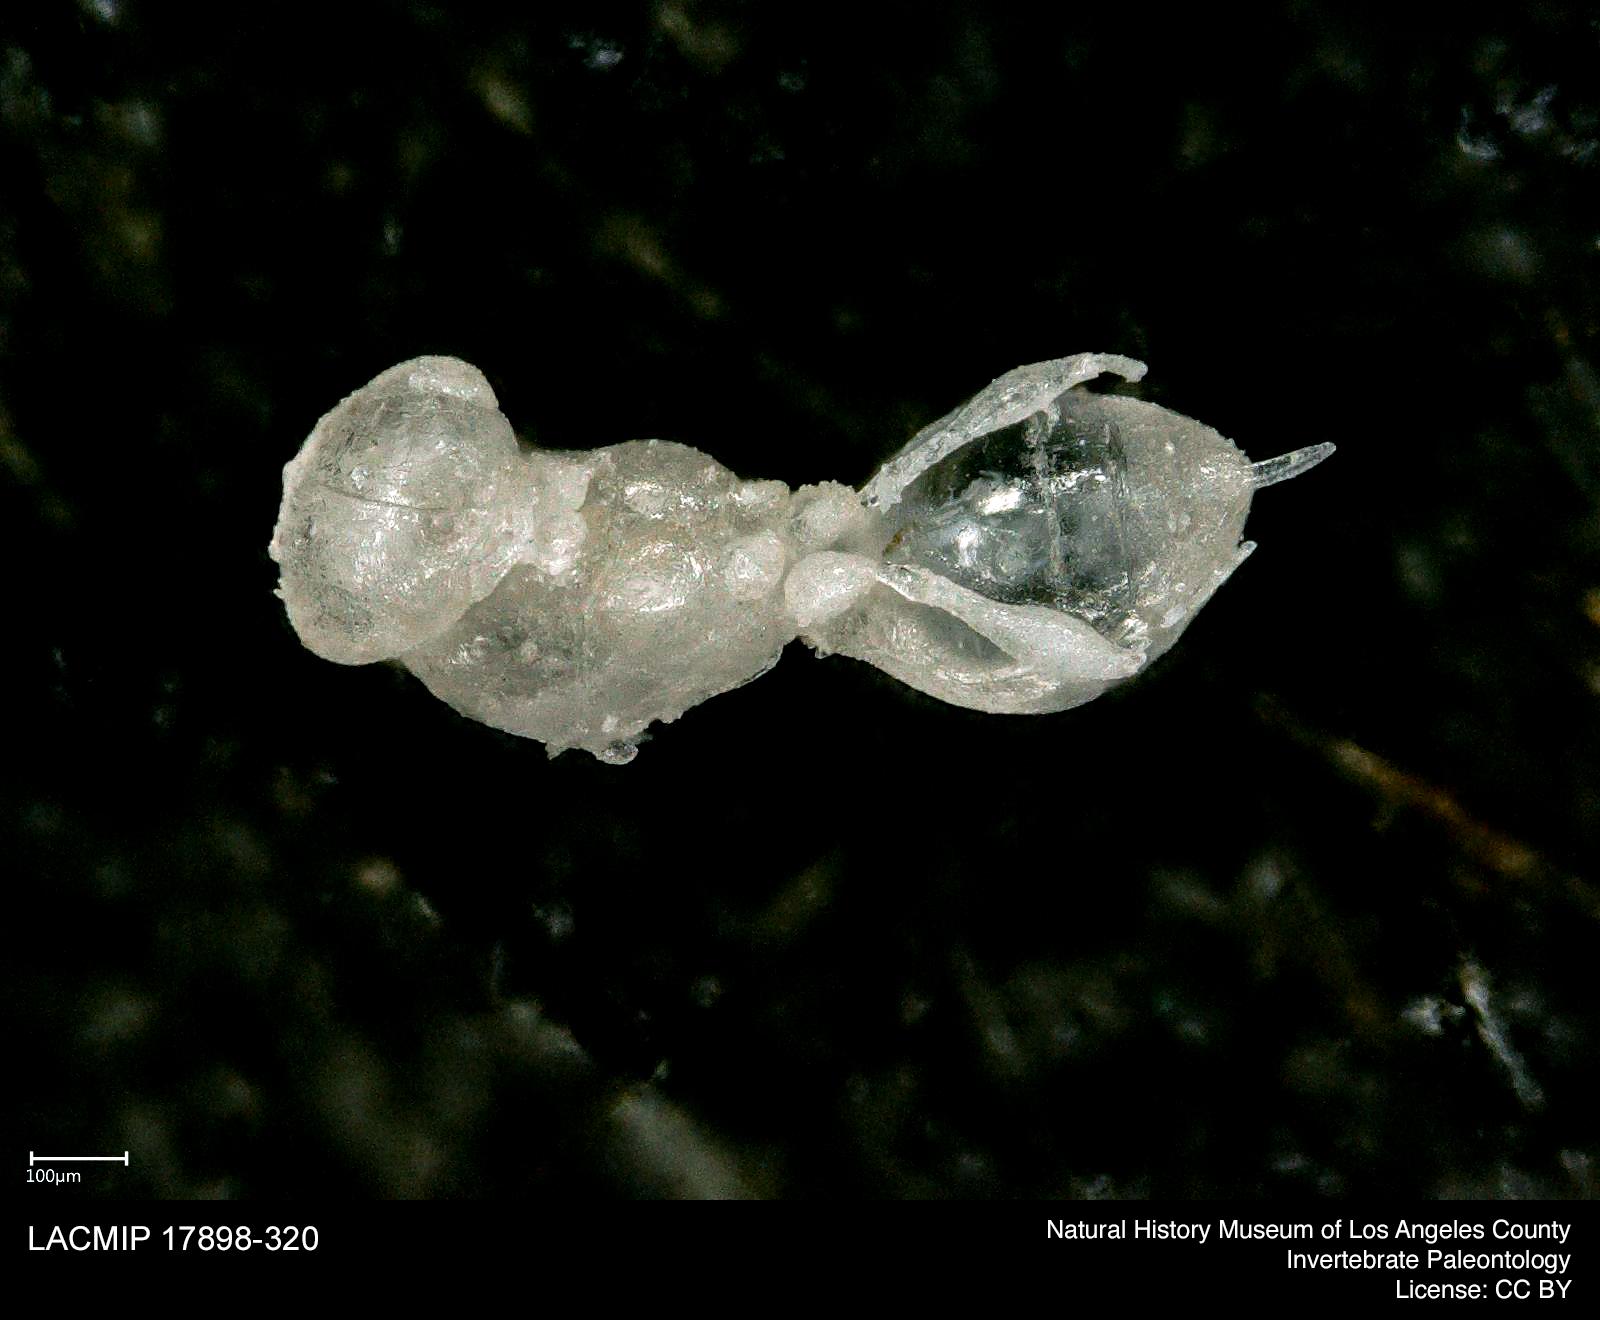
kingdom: Animalia
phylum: Arthropoda
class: Insecta
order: Hymenoptera
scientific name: Hymenoptera
